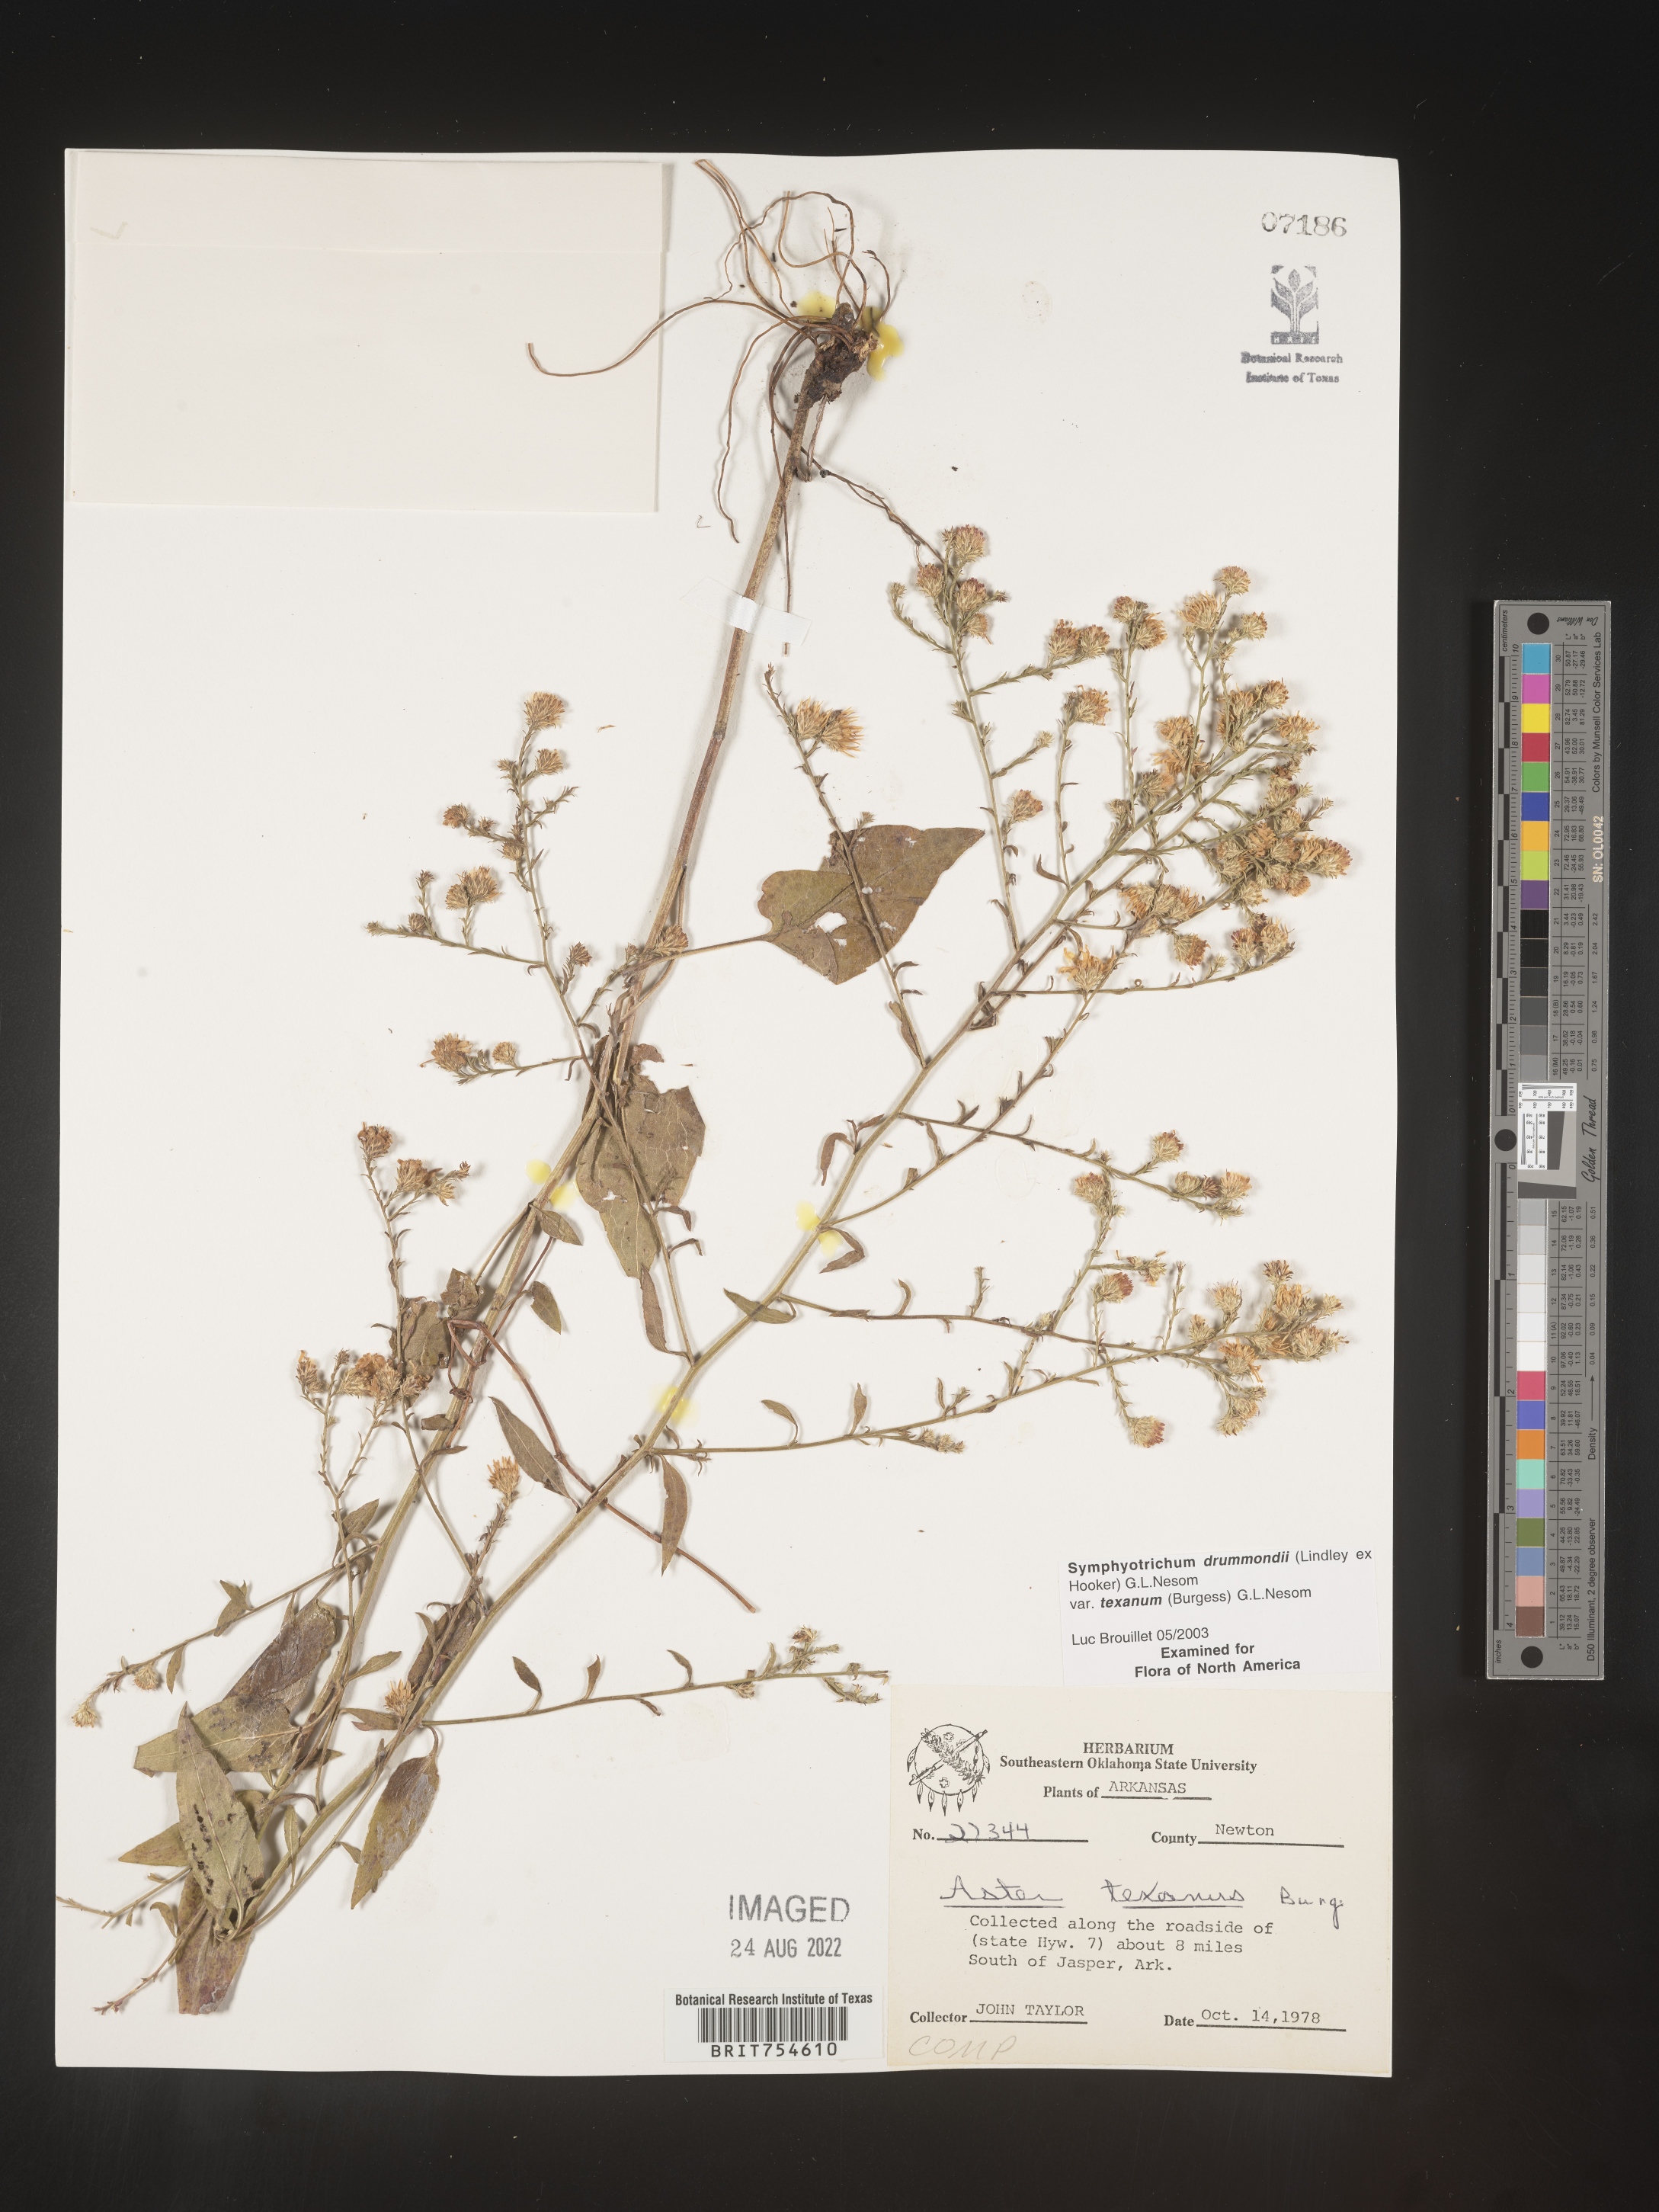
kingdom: Plantae
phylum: Tracheophyta
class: Magnoliopsida
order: Asterales
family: Asteraceae
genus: Symphyotrichum
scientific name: Symphyotrichum urophyllum
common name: Arrow-leaved aster
